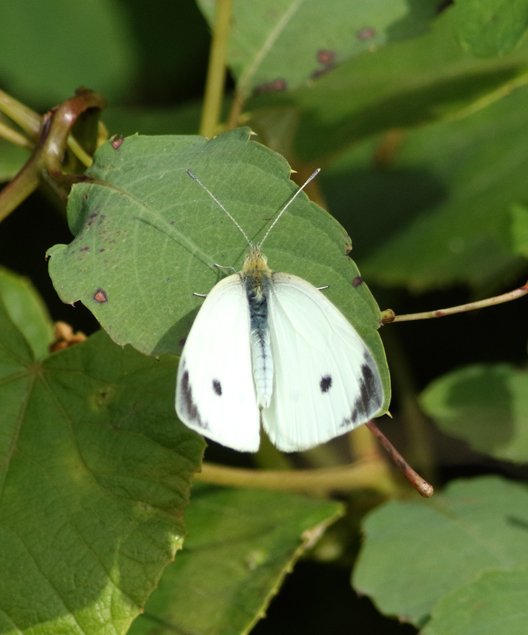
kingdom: Animalia
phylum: Arthropoda
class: Insecta
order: Lepidoptera
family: Pieridae
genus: Pieris
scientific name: Pieris rapae
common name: Cabbage White
